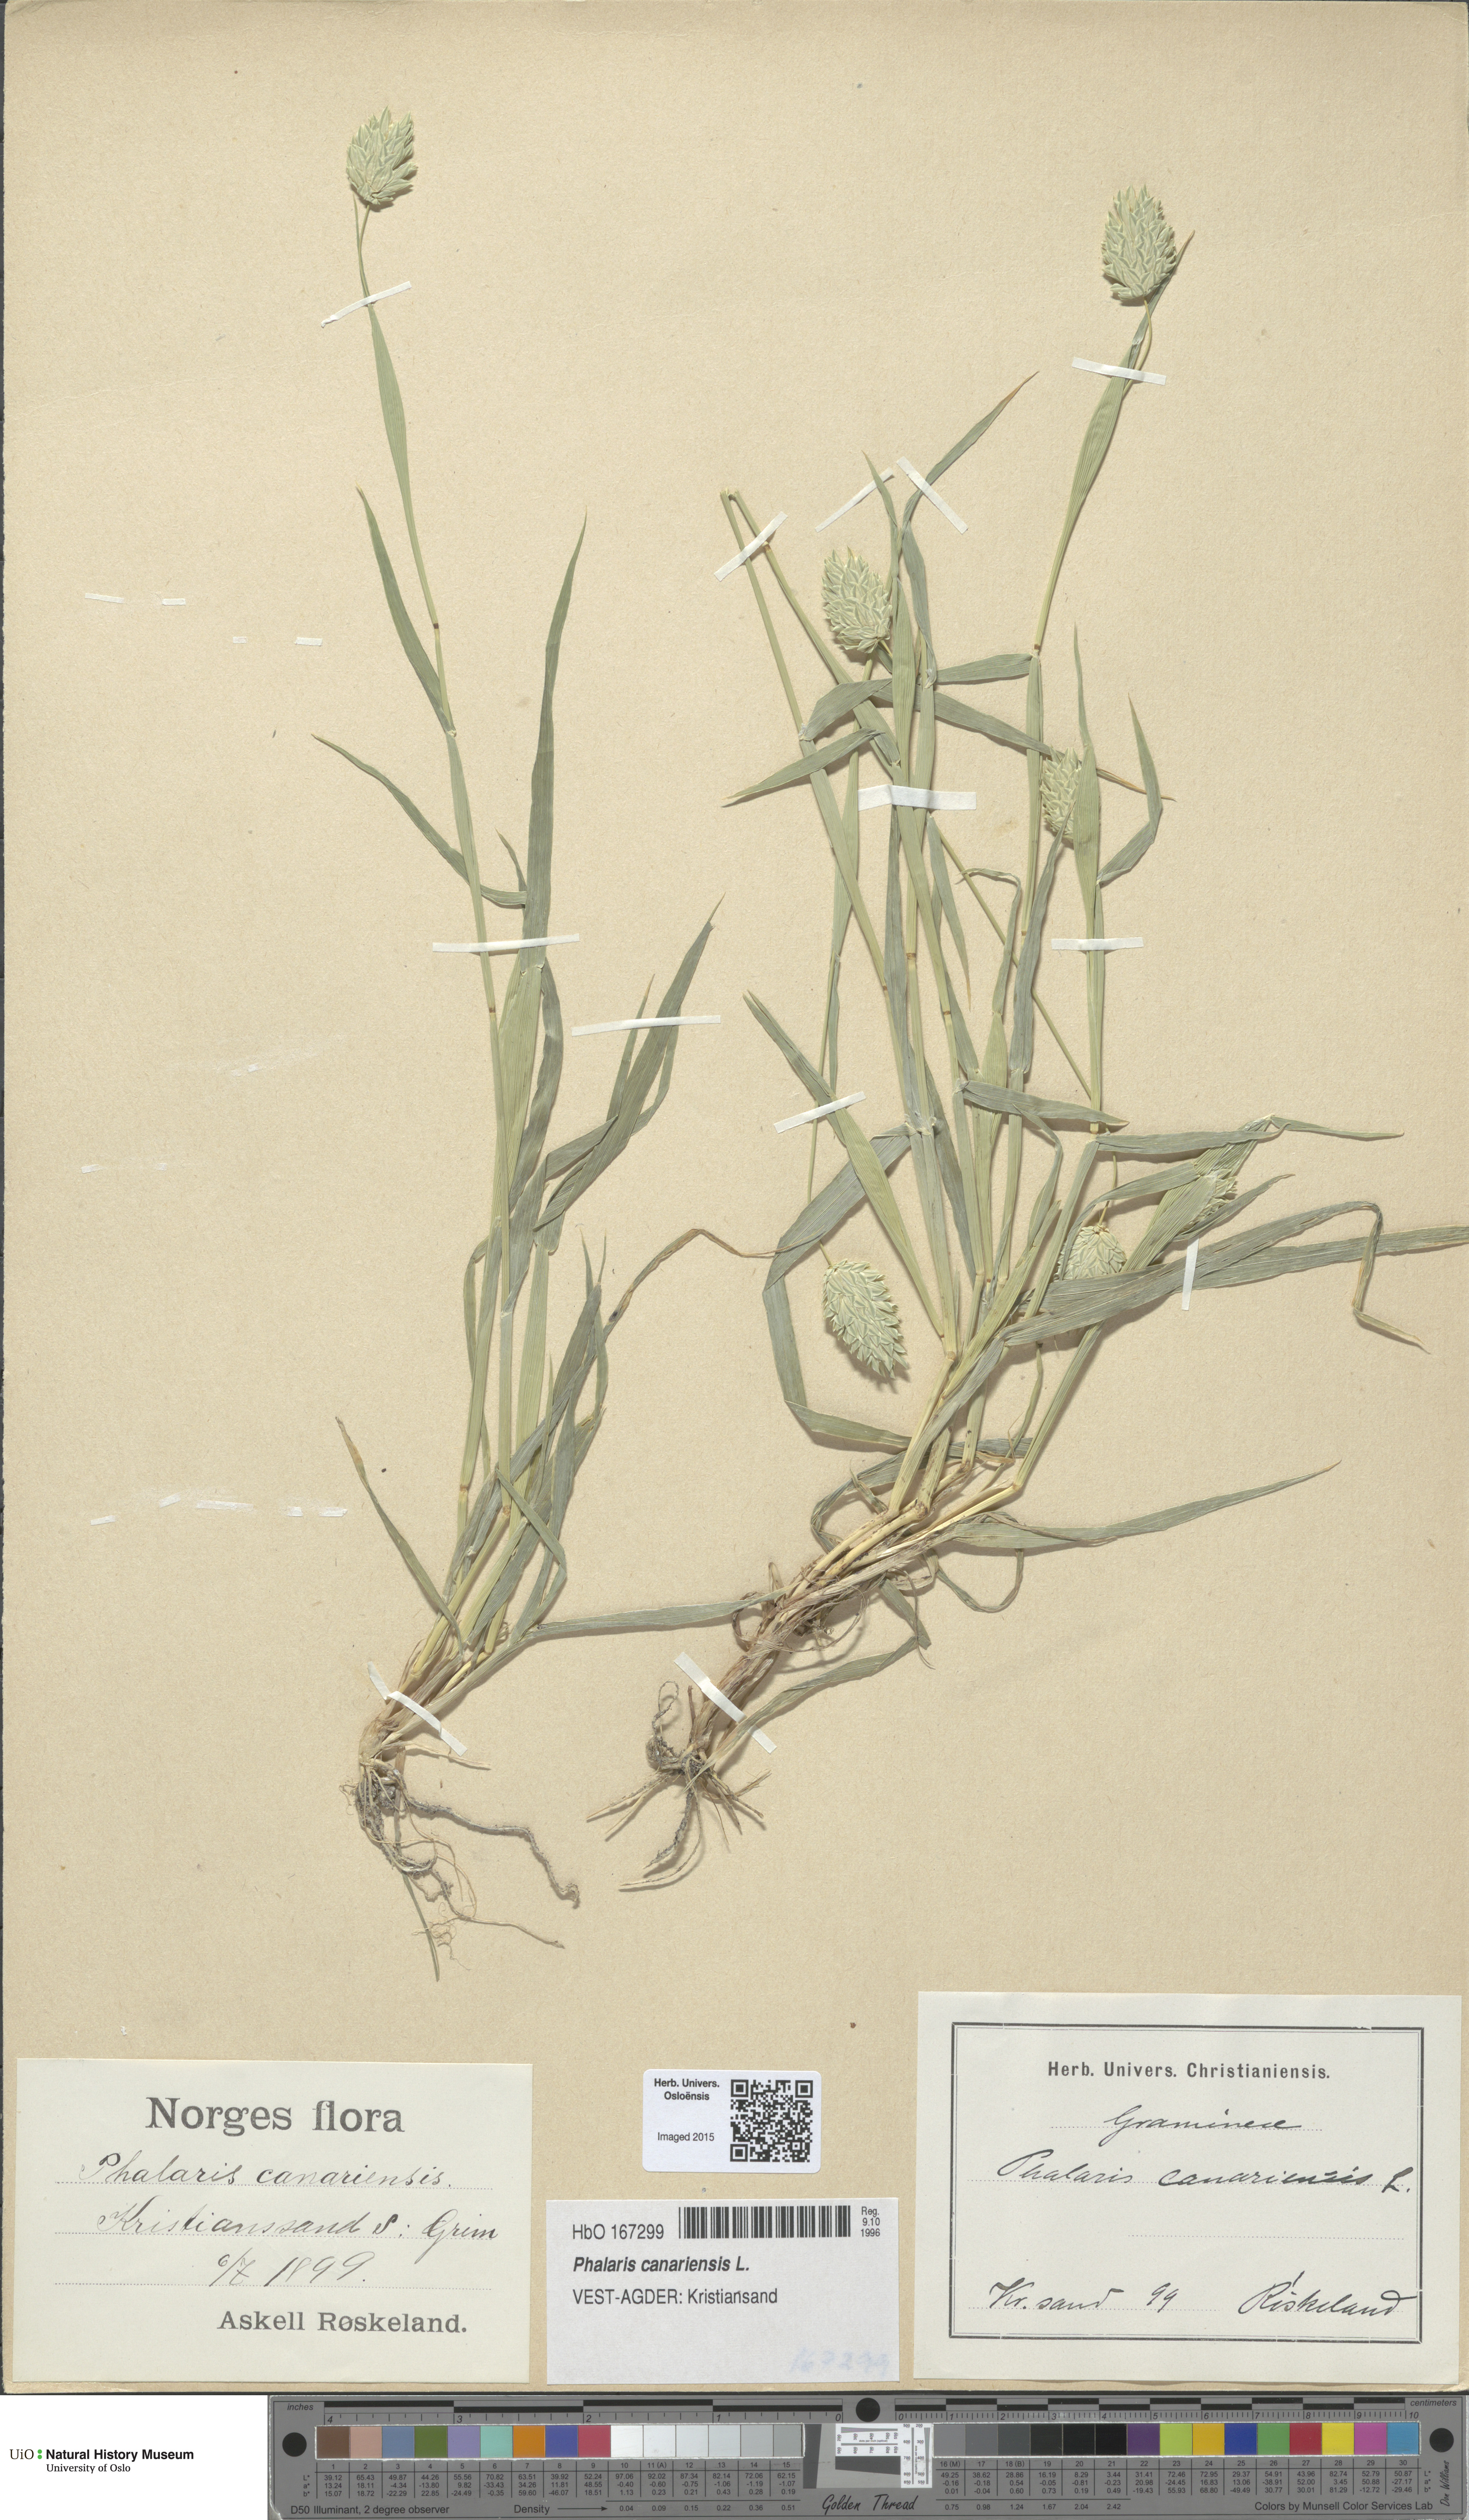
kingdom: Plantae
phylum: Tracheophyta
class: Liliopsida
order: Poales
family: Poaceae
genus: Phalaris
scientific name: Phalaris canariensis
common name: Annual canarygrass
